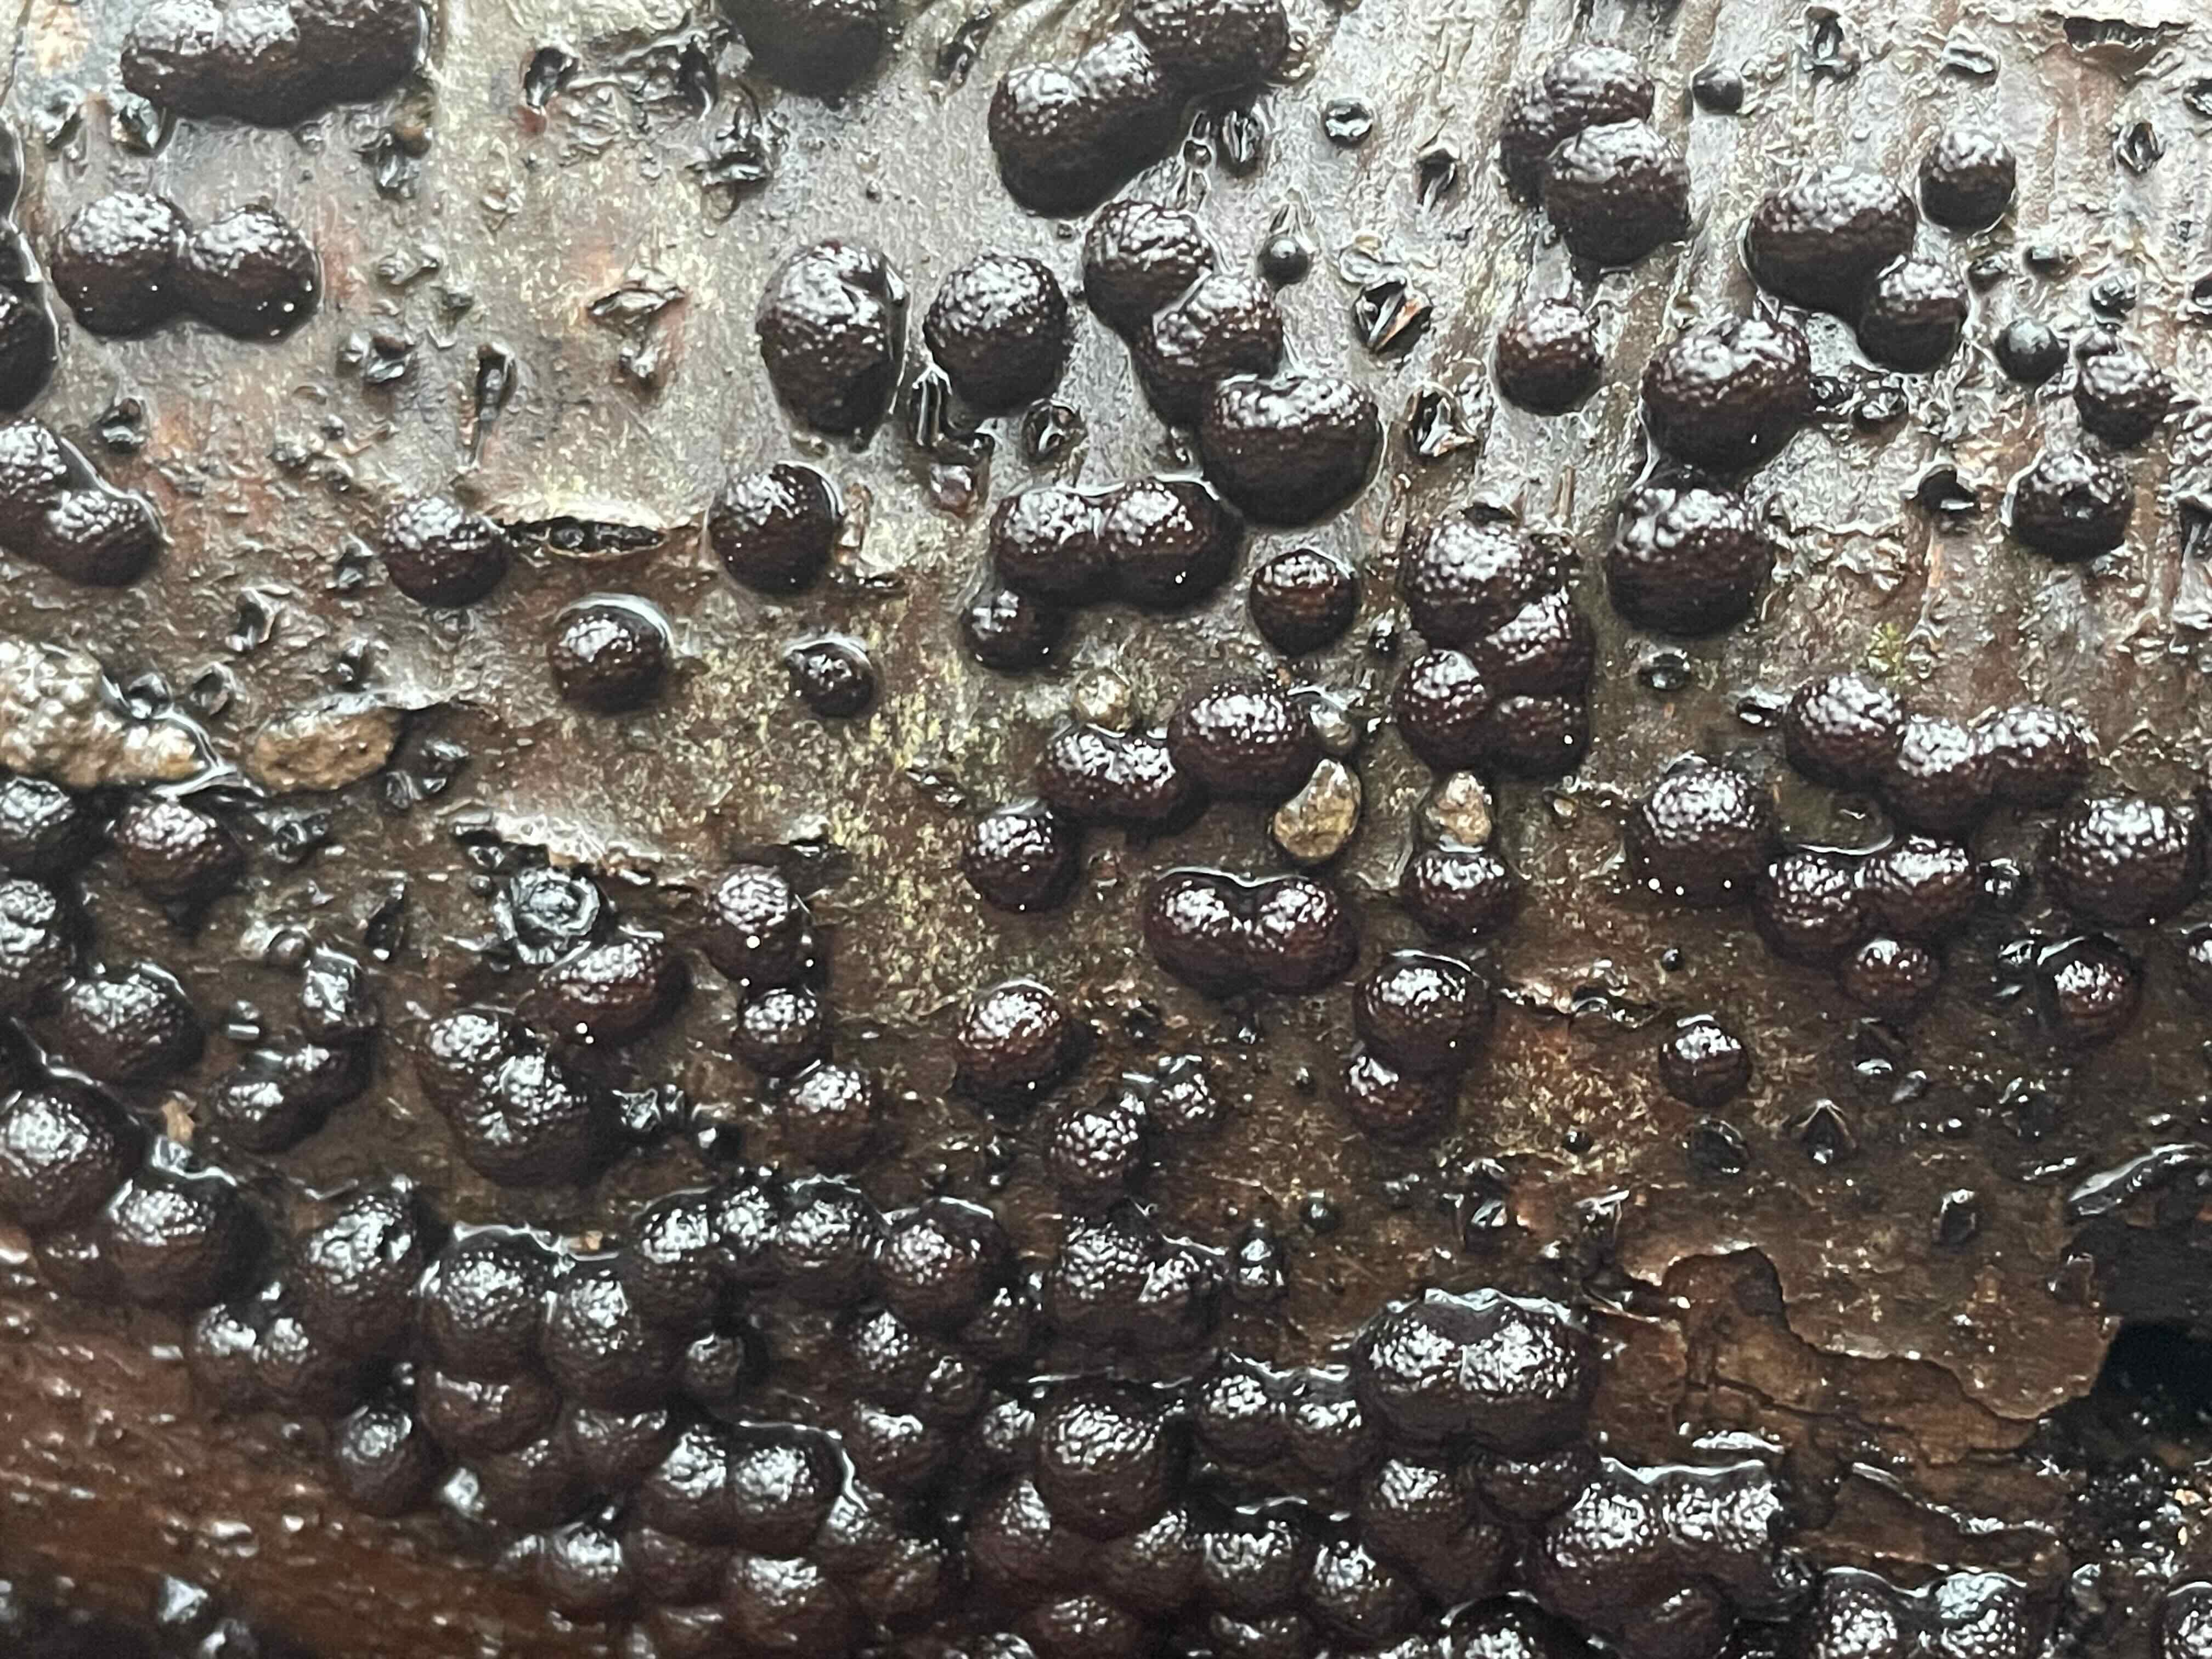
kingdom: Fungi
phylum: Ascomycota
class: Sordariomycetes
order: Xylariales
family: Hypoxylaceae
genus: Hypoxylon
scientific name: Hypoxylon fragiforme
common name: kuljordbær
